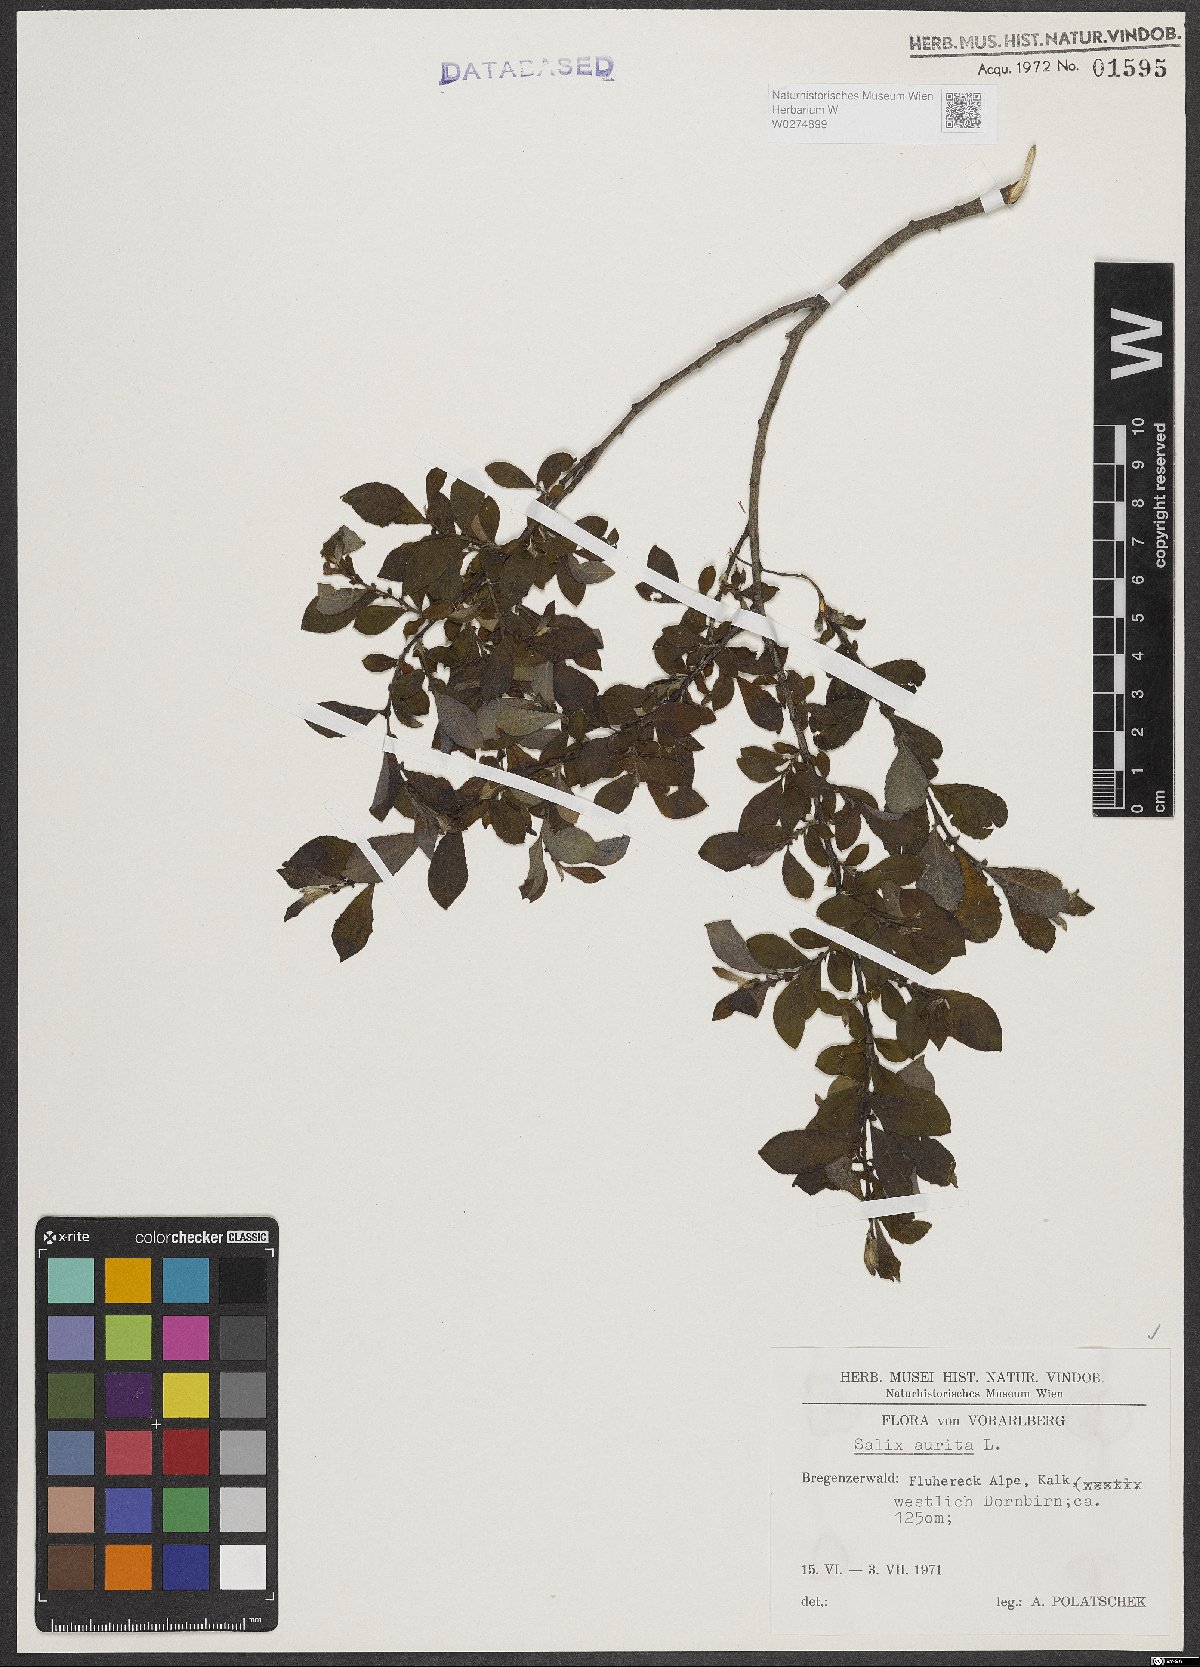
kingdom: Plantae
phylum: Tracheophyta
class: Magnoliopsida
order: Malpighiales
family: Salicaceae
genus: Salix
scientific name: Salix aurita
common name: Eared willow
